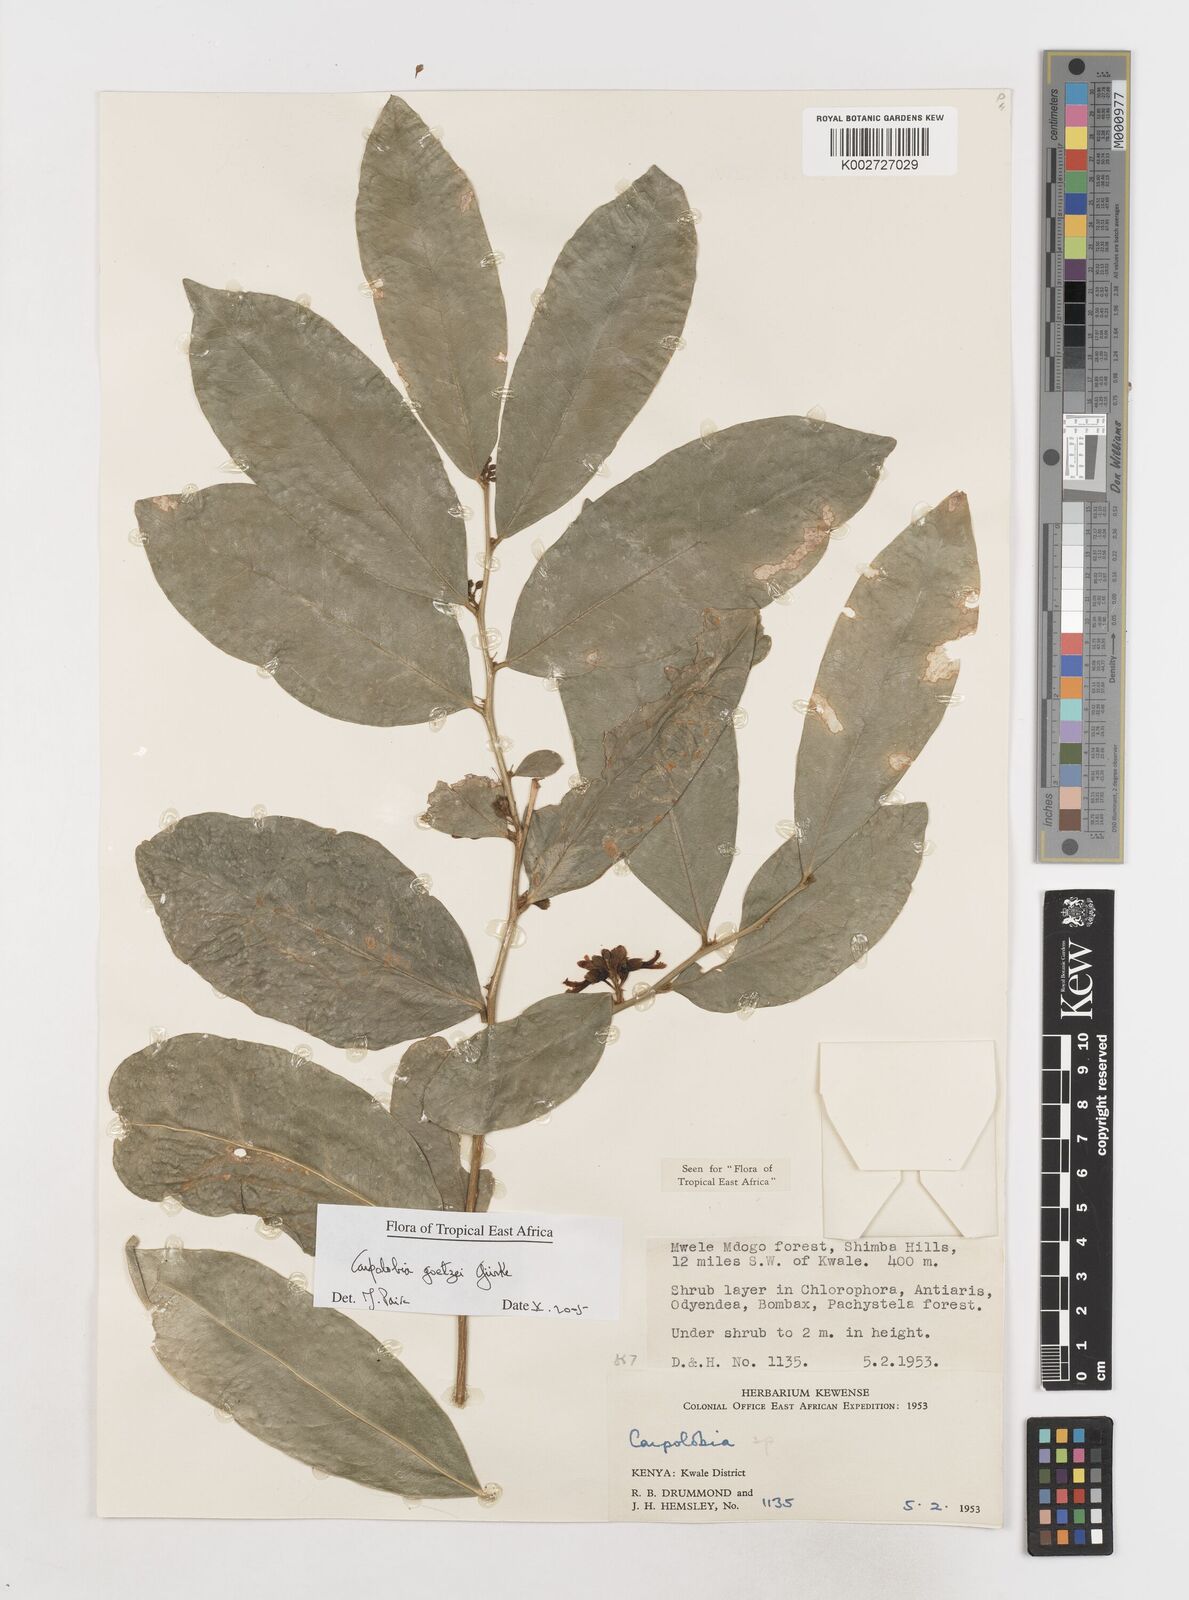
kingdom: Plantae
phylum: Tracheophyta
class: Magnoliopsida
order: Fabales
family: Polygalaceae
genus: Carpolobia
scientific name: Carpolobia goetzei
